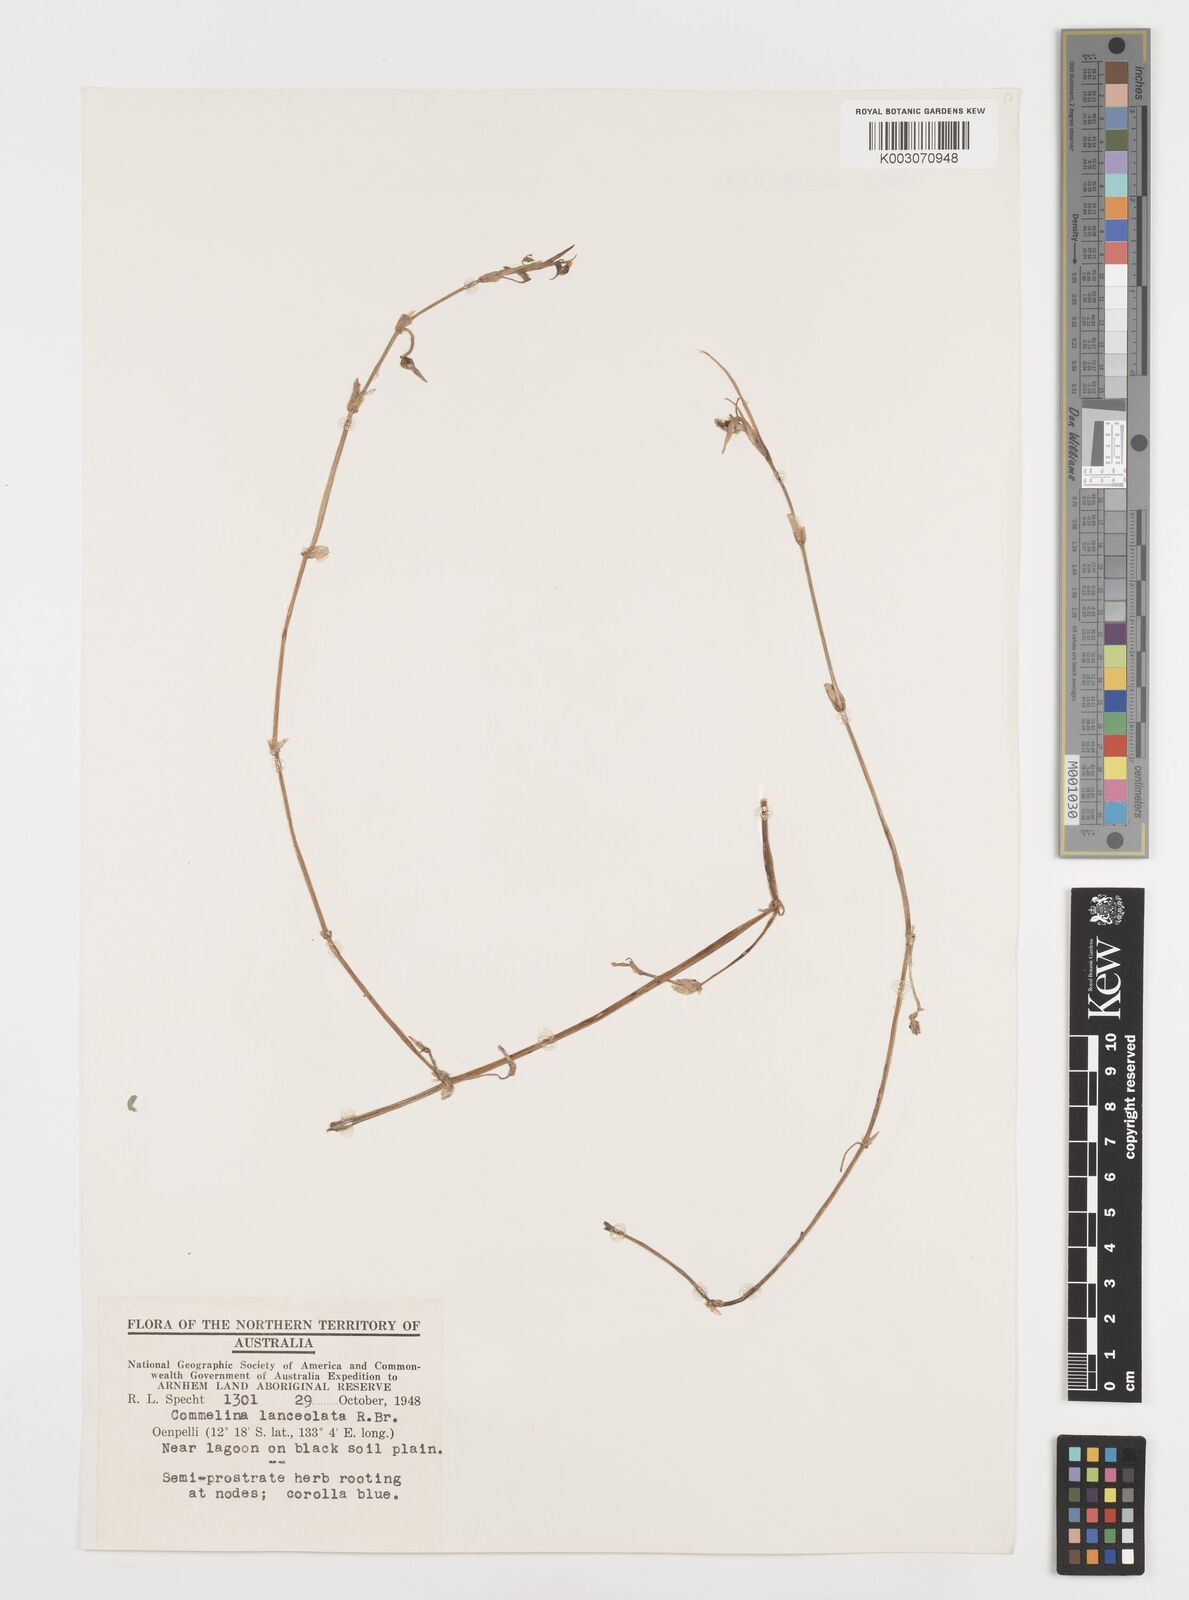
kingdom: Plantae
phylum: Tracheophyta
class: Liliopsida
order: Commelinales
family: Commelinaceae
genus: Commelina
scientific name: Commelina lanceolata
